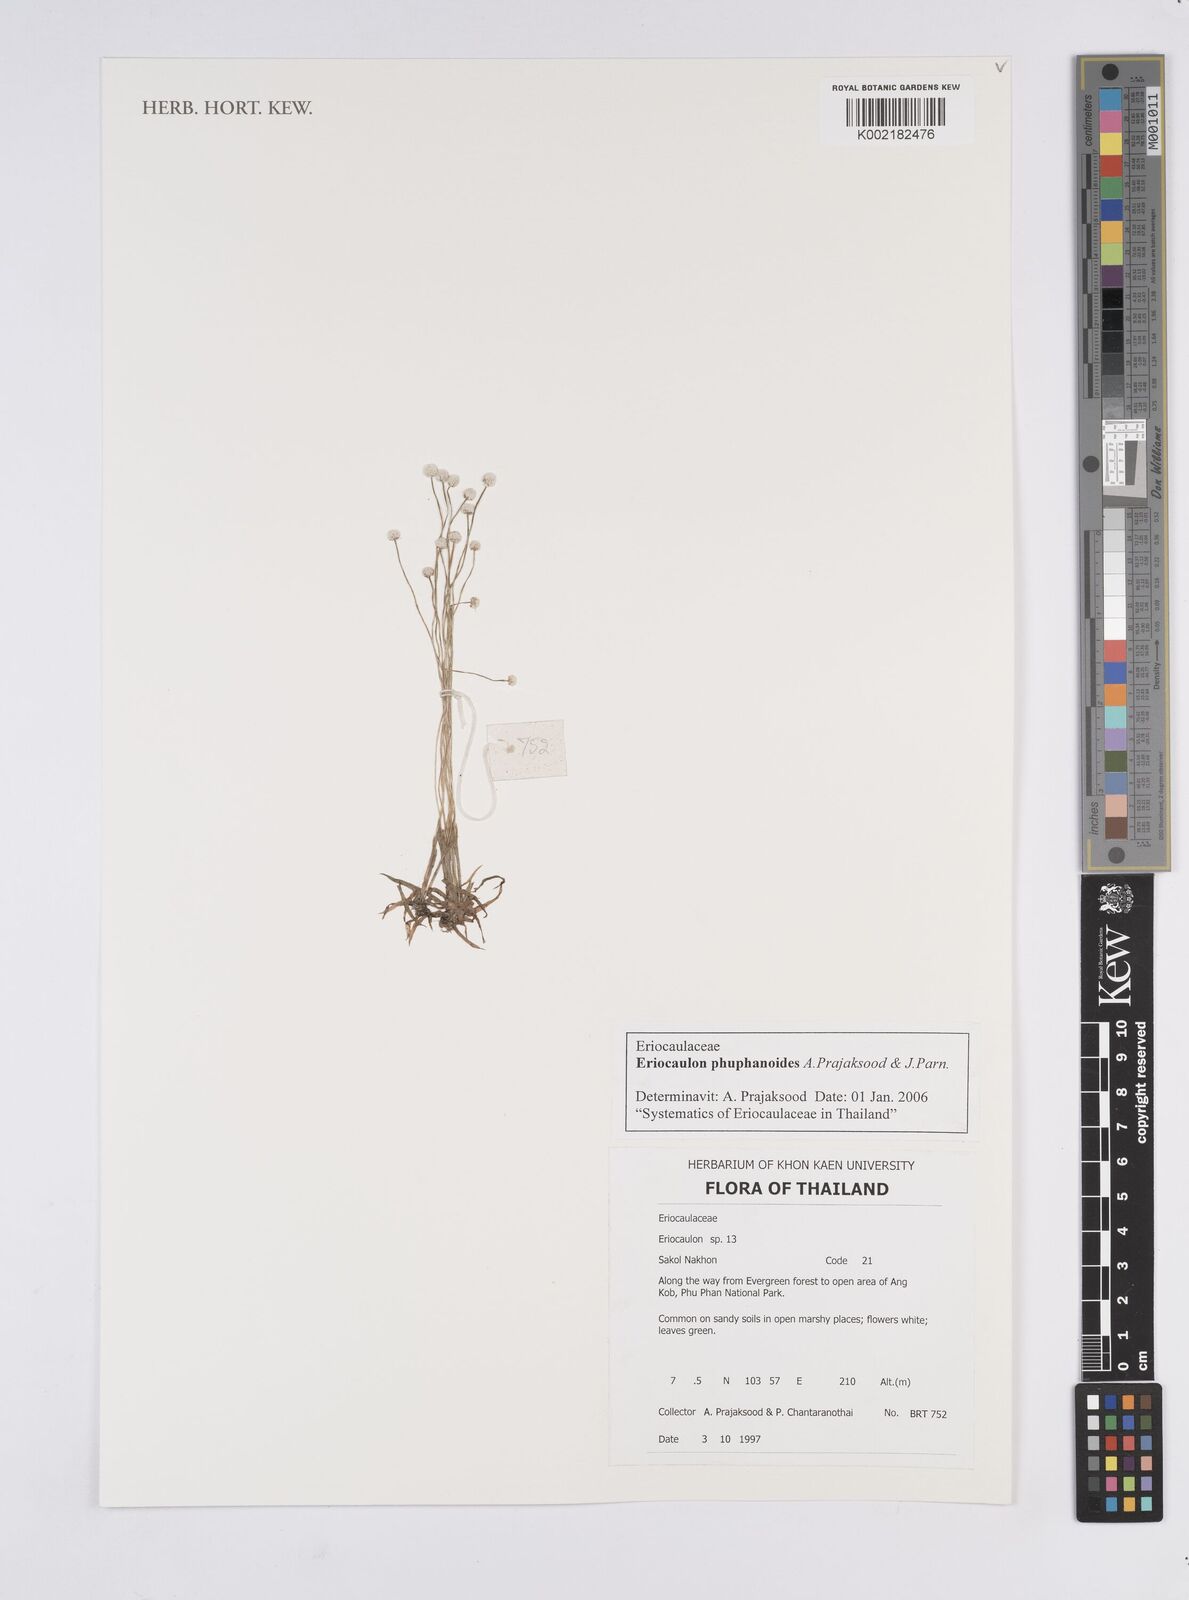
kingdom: Plantae
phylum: Tracheophyta
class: Liliopsida
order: Poales
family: Eriocaulaceae
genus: Eriocaulon
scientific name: Eriocaulon phuphanoides
